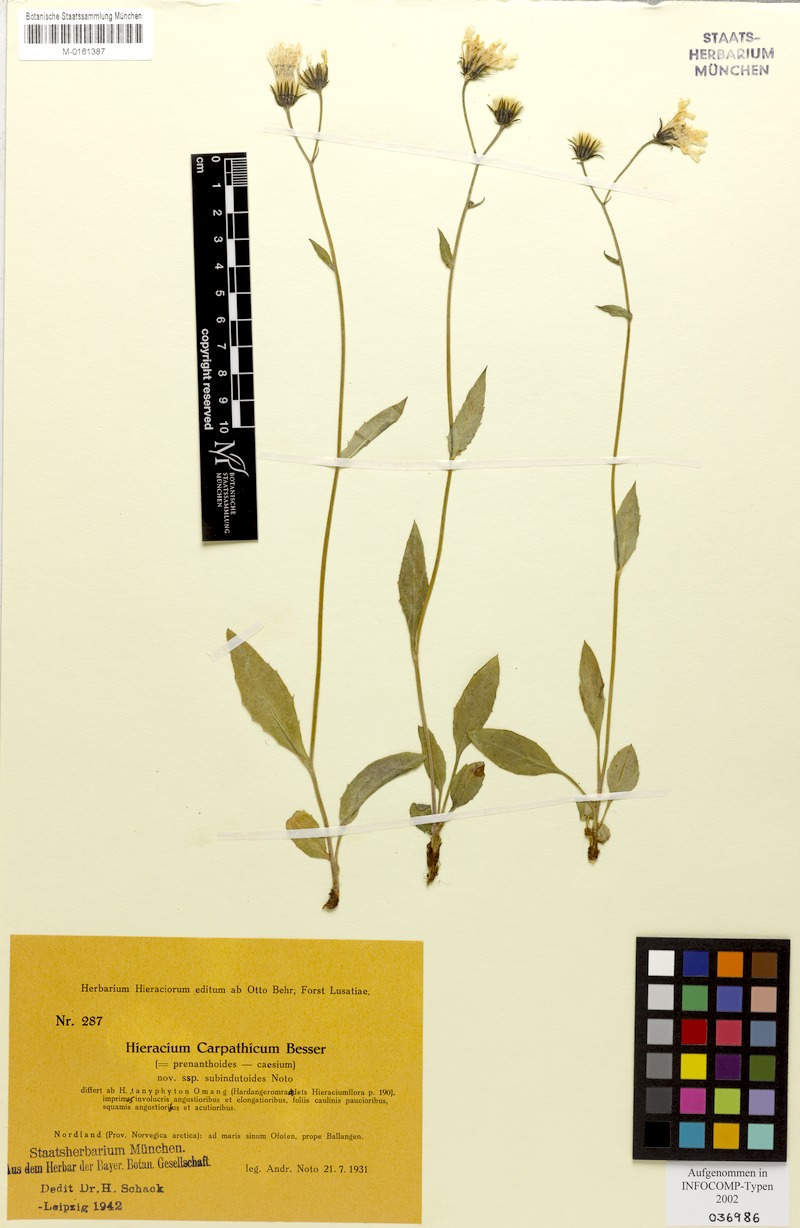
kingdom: Plantae
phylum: Tracheophyta
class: Magnoliopsida
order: Asterales
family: Asteraceae
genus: Hieracium
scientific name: Hieracium carpathicum
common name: Perth hawkweed
